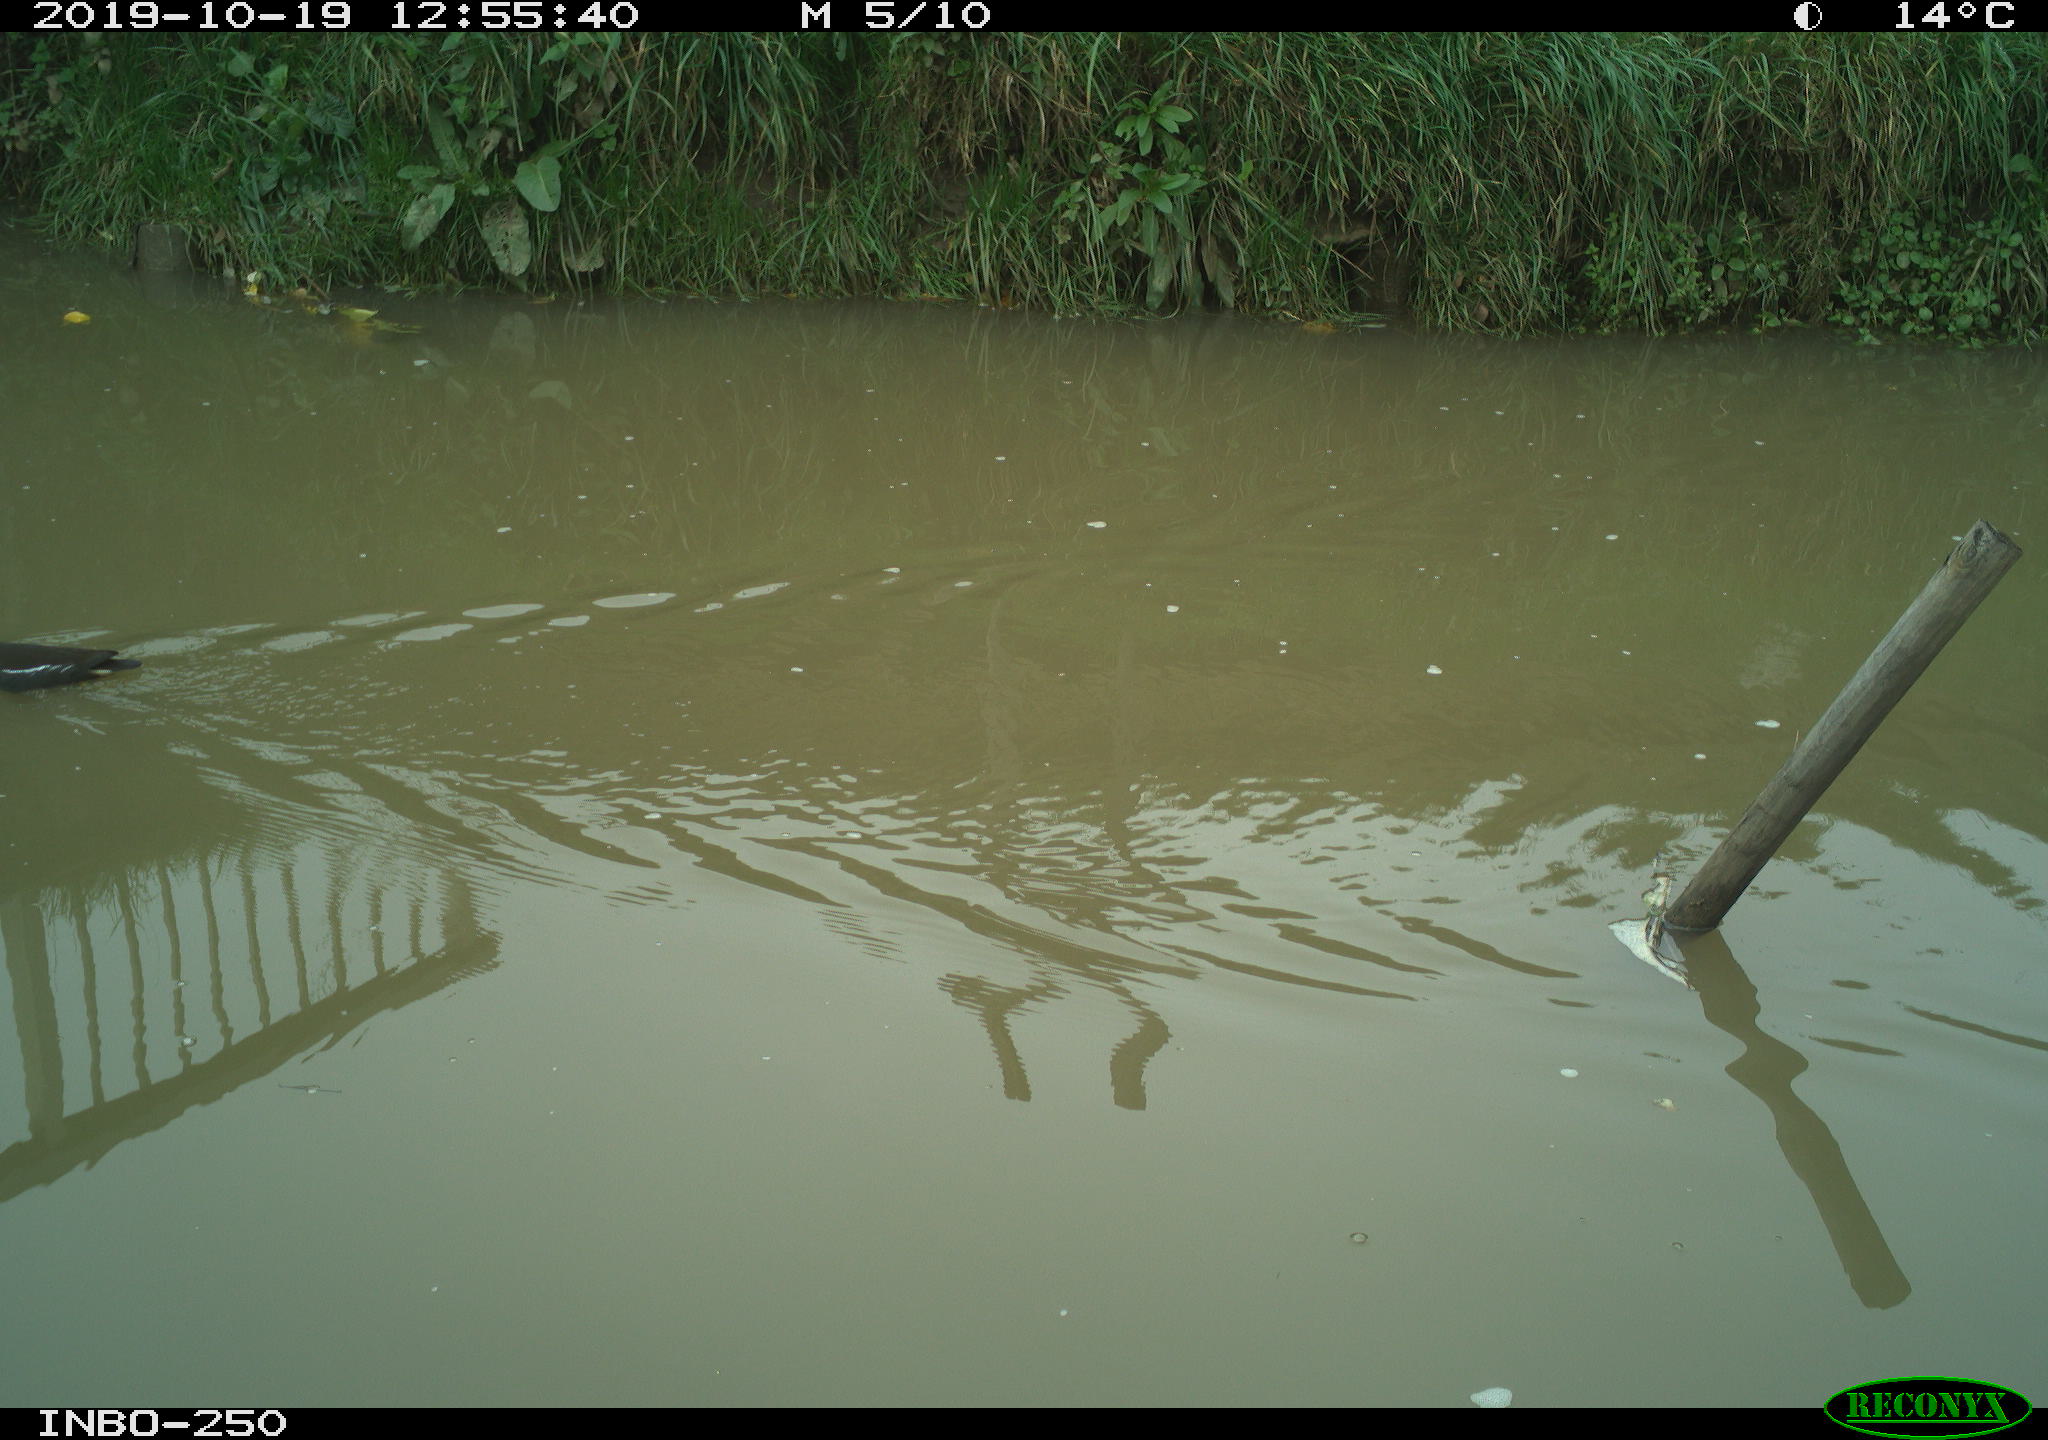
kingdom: Animalia
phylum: Chordata
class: Aves
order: Gruiformes
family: Rallidae
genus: Gallinula
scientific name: Gallinula chloropus
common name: Common moorhen
